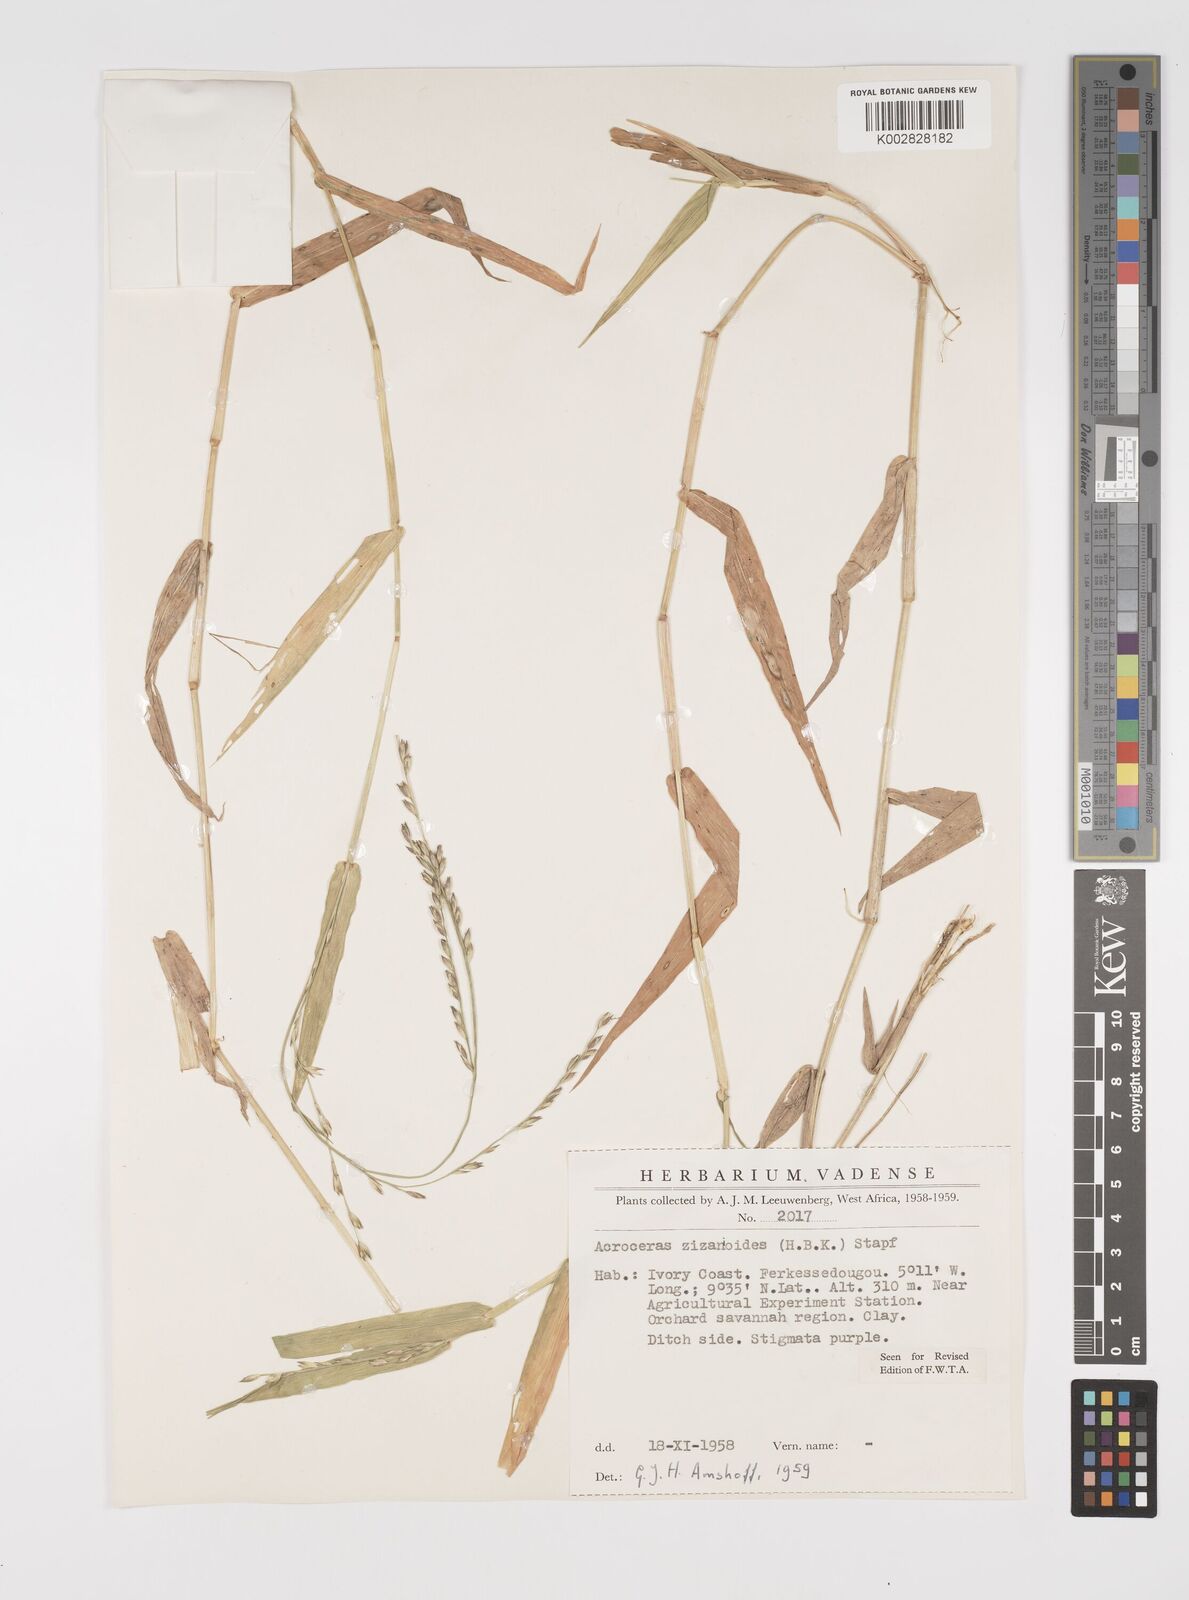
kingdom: Plantae
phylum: Tracheophyta
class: Liliopsida
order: Poales
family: Poaceae
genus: Acroceras
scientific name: Acroceras zizanioides
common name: Oat grass
